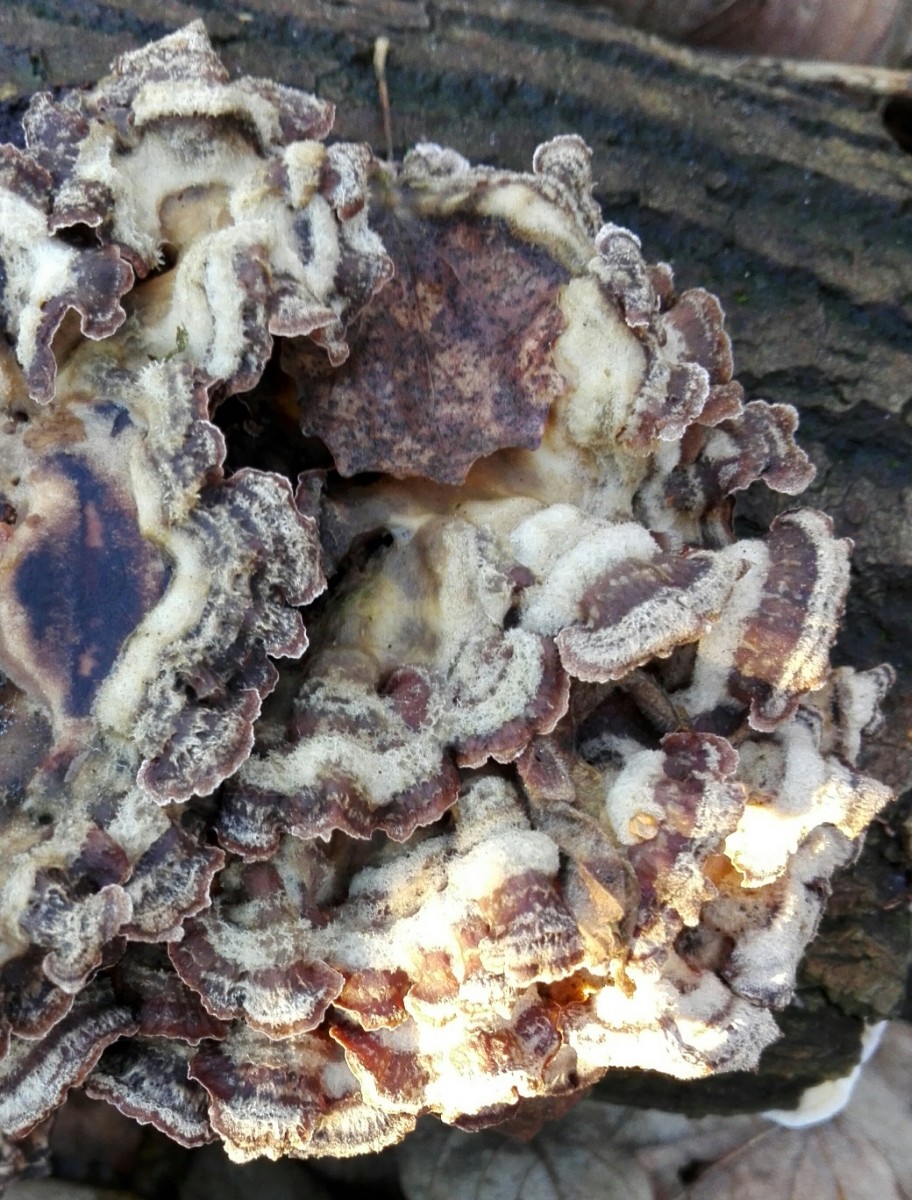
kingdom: Fungi
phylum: Basidiomycota
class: Agaricomycetes
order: Agaricales
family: Cyphellaceae
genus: Chondrostereum
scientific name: Chondrostereum purpureum
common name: purpurlædersvamp
